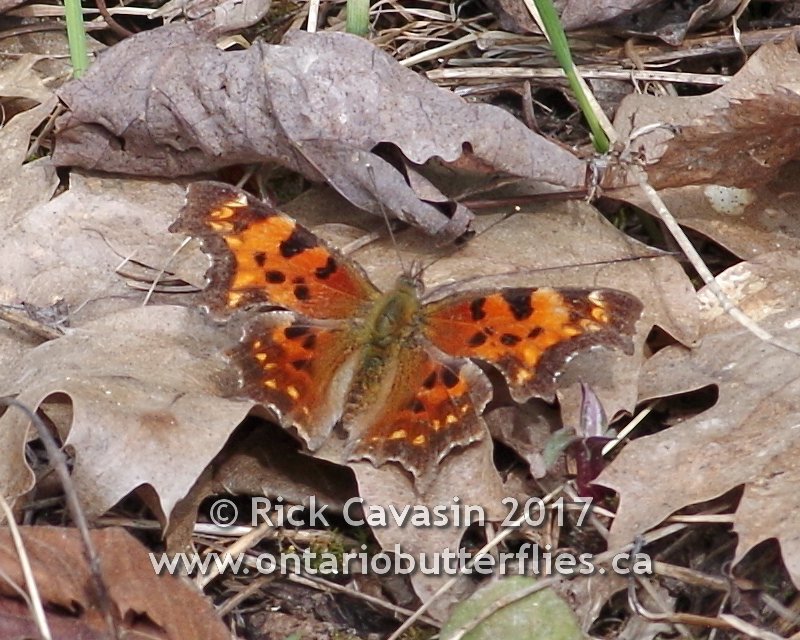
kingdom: Animalia
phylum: Arthropoda
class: Insecta
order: Lepidoptera
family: Nymphalidae
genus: Polygonia
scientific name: Polygonia faunus
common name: Green Comma
